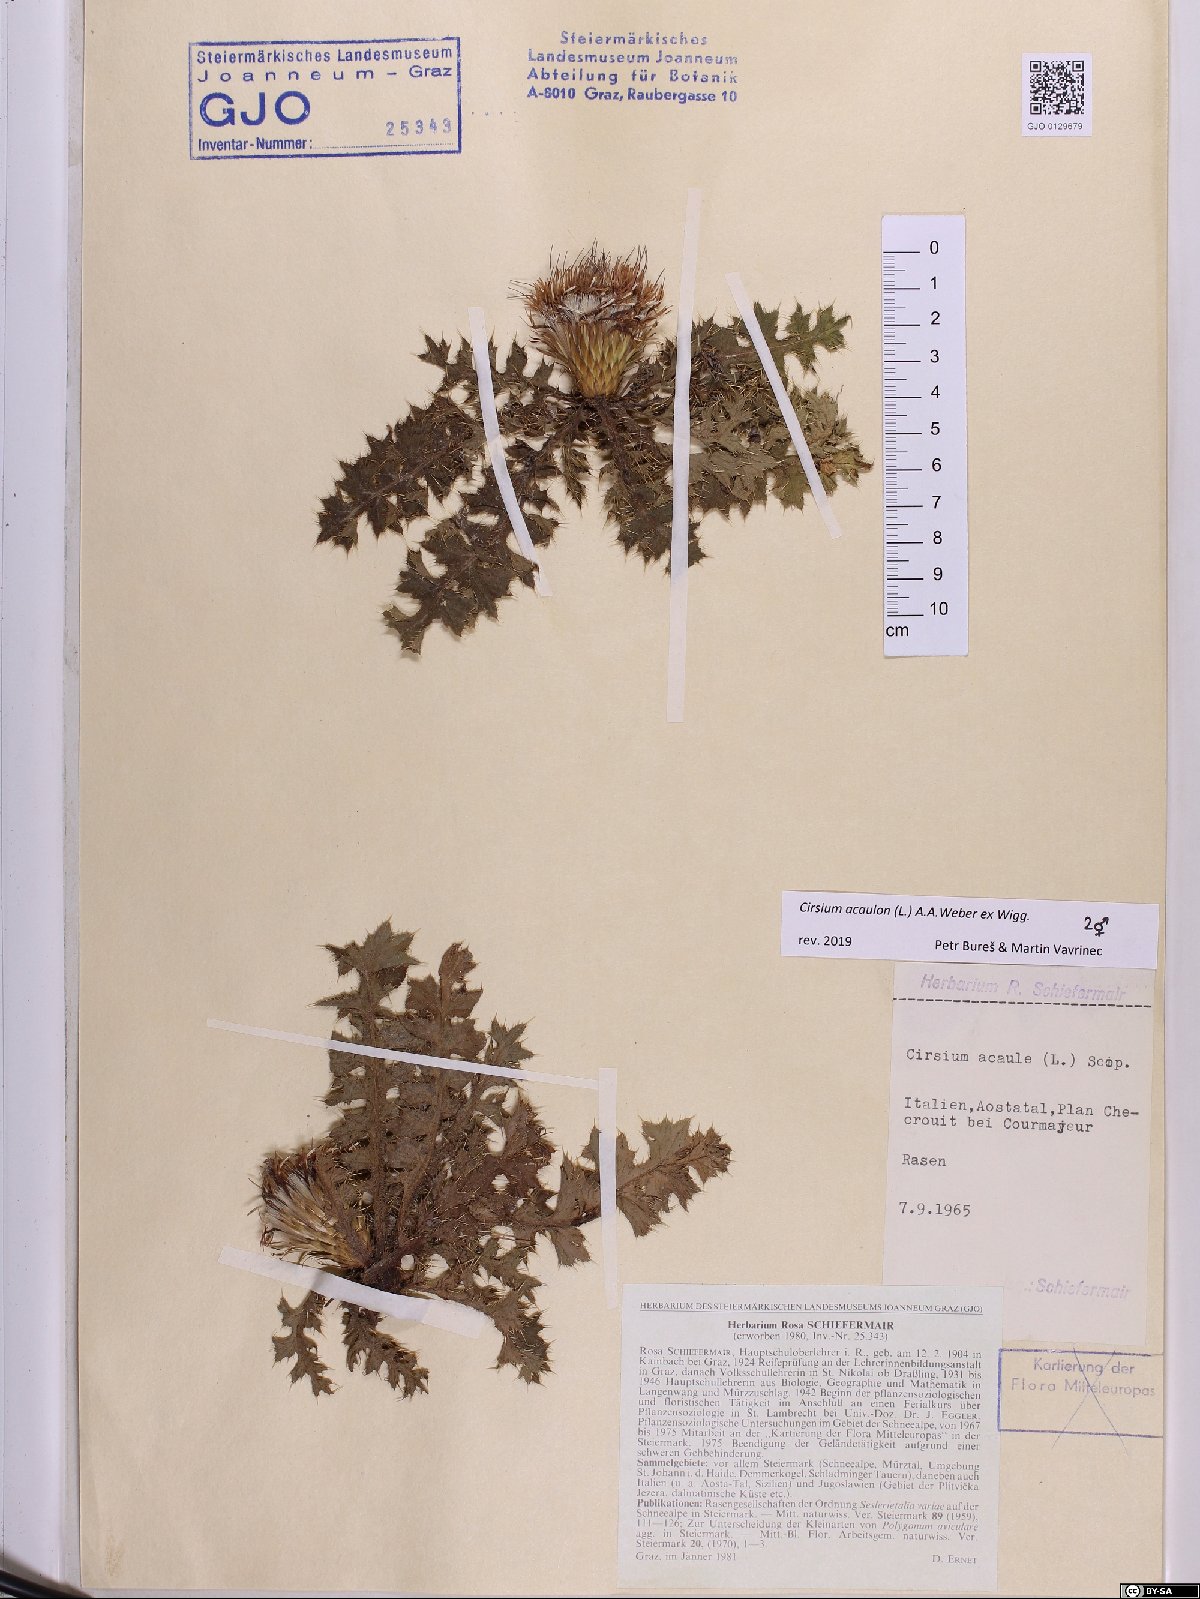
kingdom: Plantae
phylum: Tracheophyta
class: Magnoliopsida
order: Asterales
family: Asteraceae
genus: Cirsium
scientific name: Cirsium acaulon
